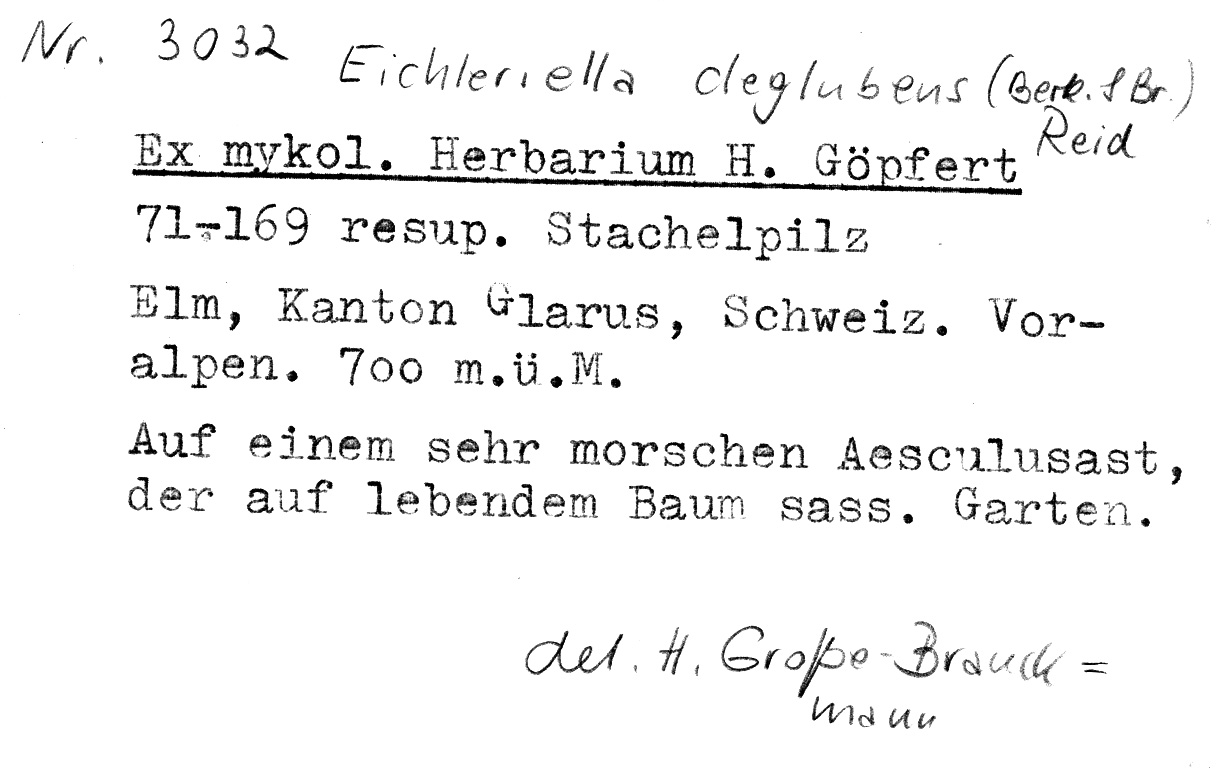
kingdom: Plantae
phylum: Tracheophyta
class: Magnoliopsida
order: Sapindales
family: Sapindaceae
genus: Aesculus
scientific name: Aesculus
